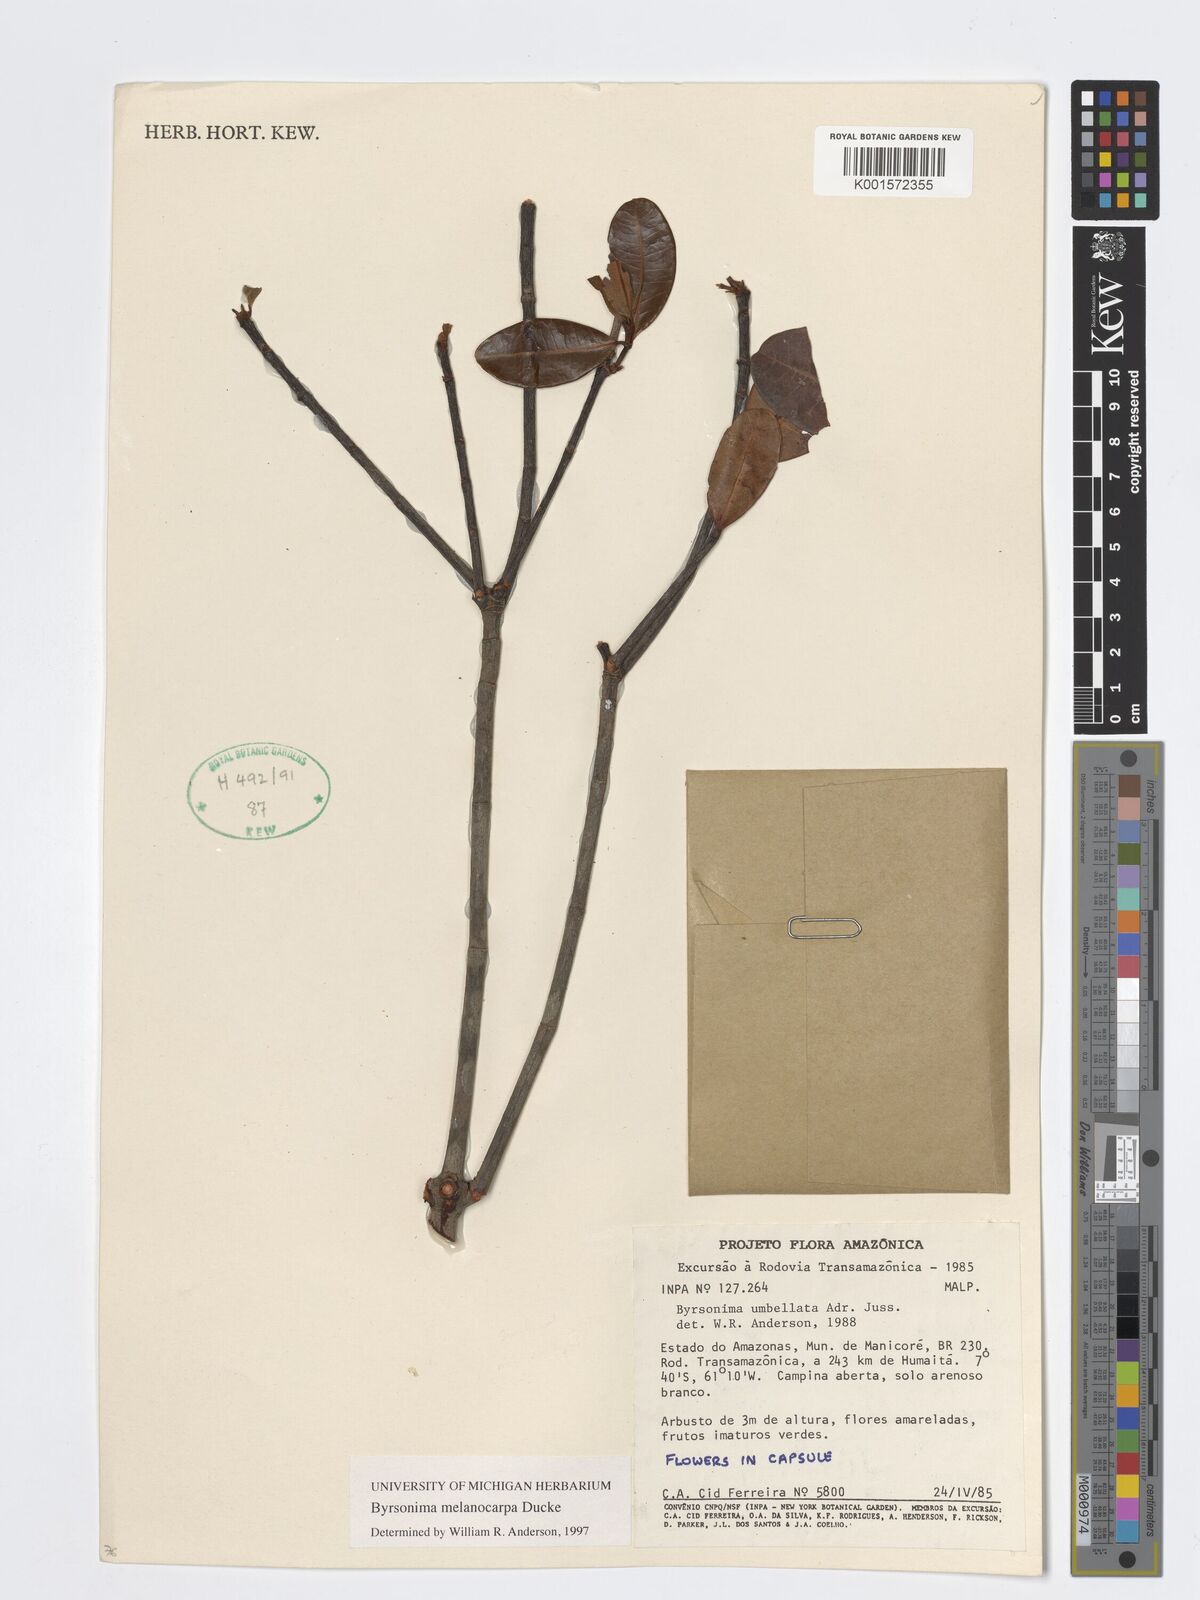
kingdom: Plantae
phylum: Tracheophyta
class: Magnoliopsida
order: Malpighiales
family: Malpighiaceae
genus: Byrsonima
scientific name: Byrsonima melanocarpa
